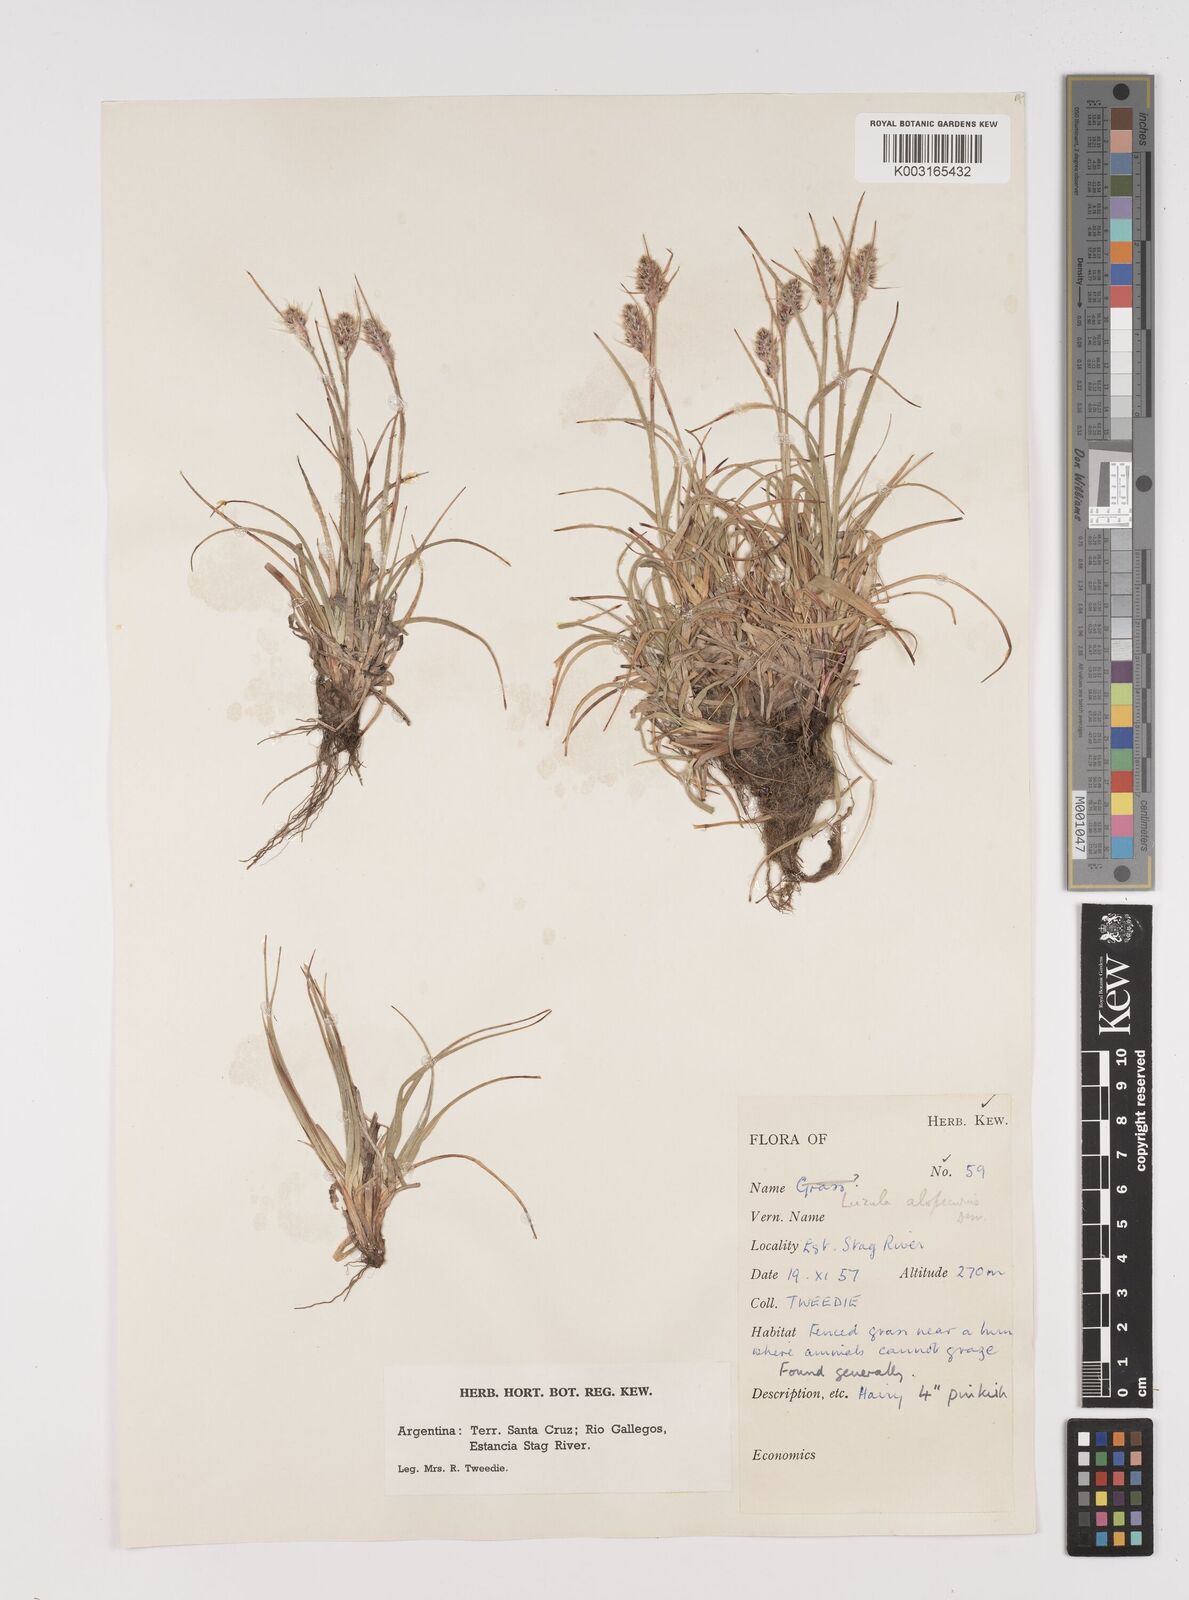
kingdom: Plantae
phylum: Tracheophyta
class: Liliopsida
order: Poales
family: Juncaceae
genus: Luzula
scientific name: Luzula alopecurus
